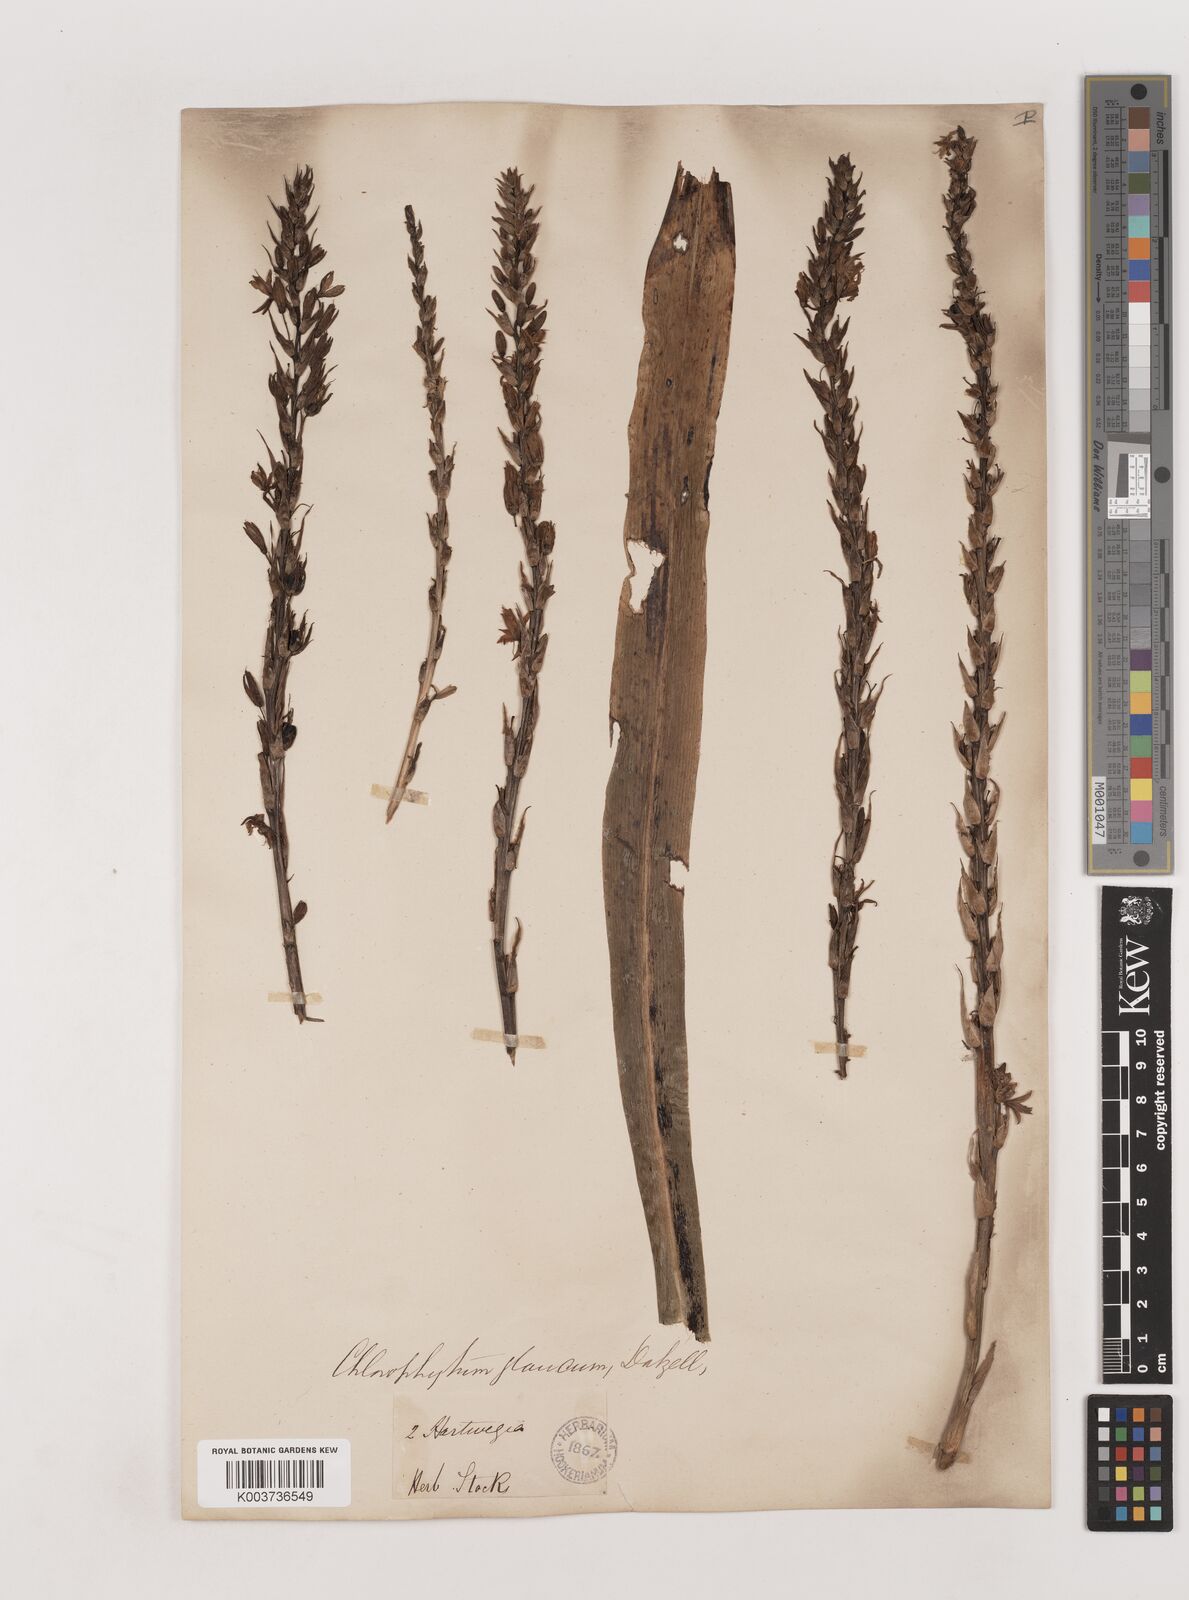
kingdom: Plantae
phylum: Tracheophyta
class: Liliopsida
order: Asparagales
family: Asparagaceae
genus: Chlorophytum
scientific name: Chlorophytum glaucum
